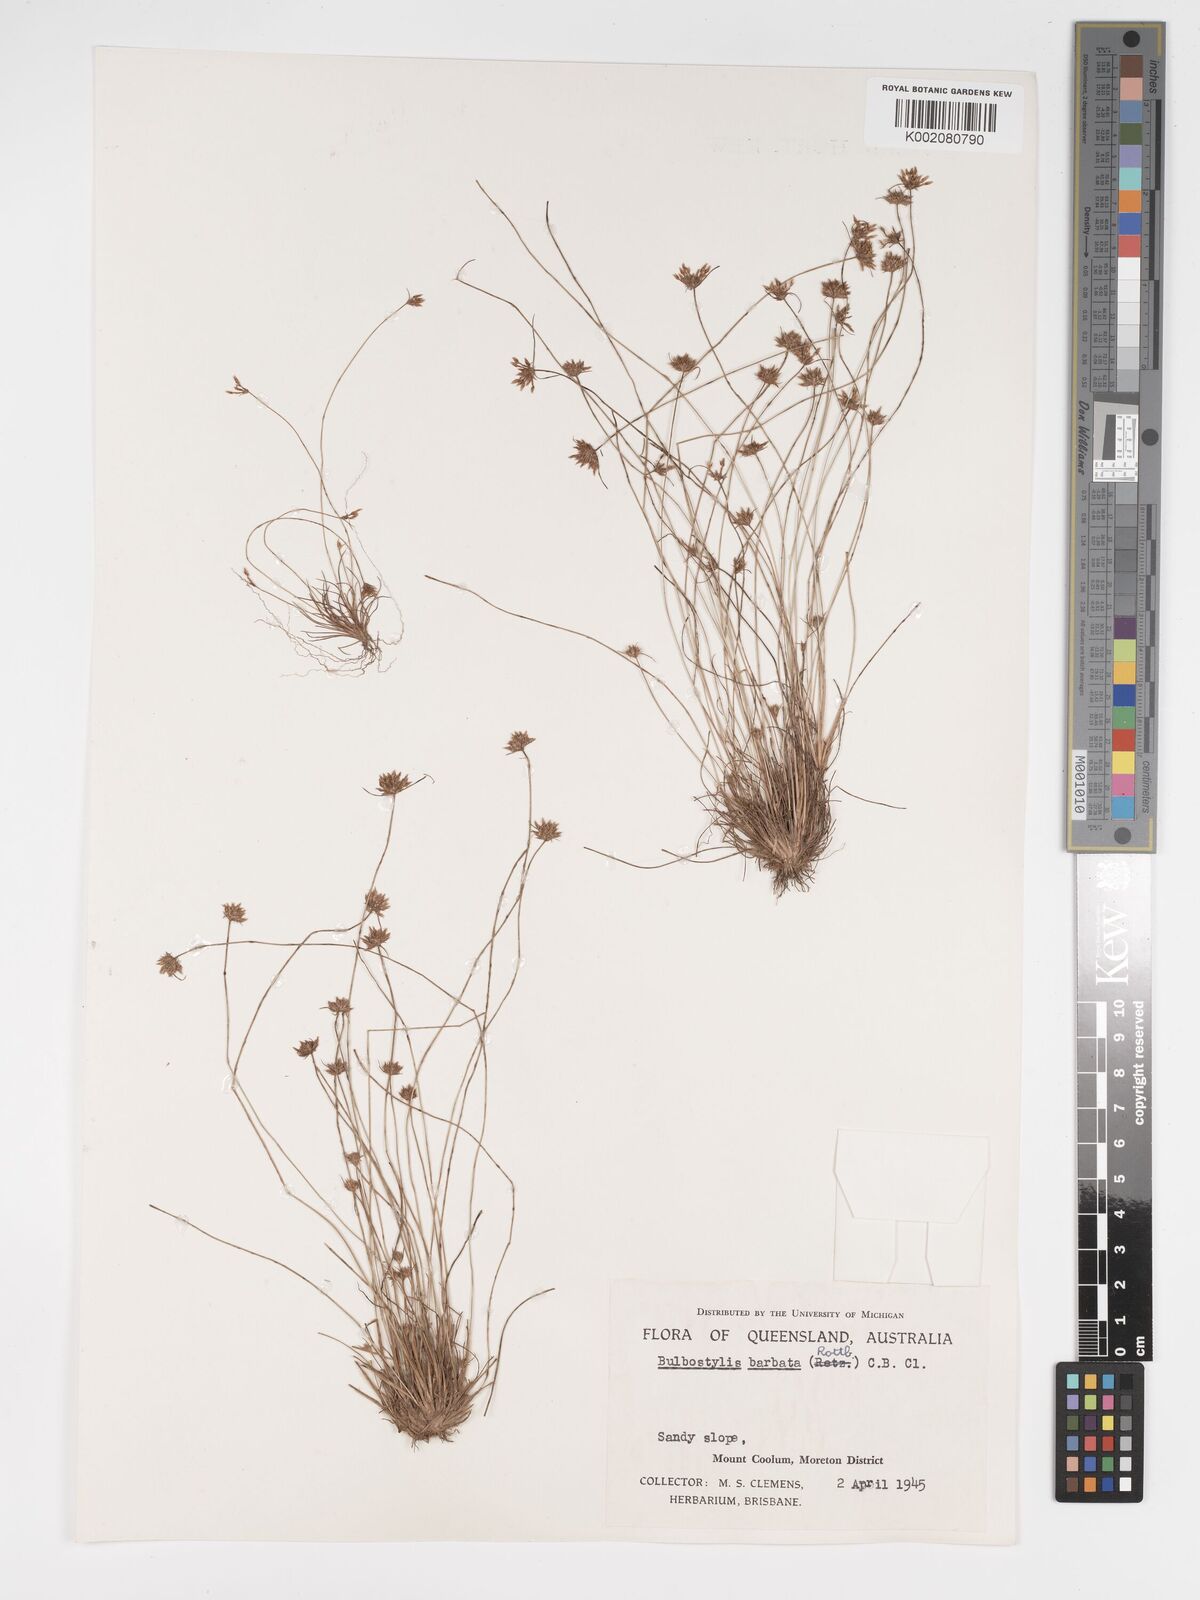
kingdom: Plantae
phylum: Tracheophyta
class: Liliopsida
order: Poales
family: Cyperaceae
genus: Bulbostylis
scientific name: Bulbostylis barbata
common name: Watergrass
